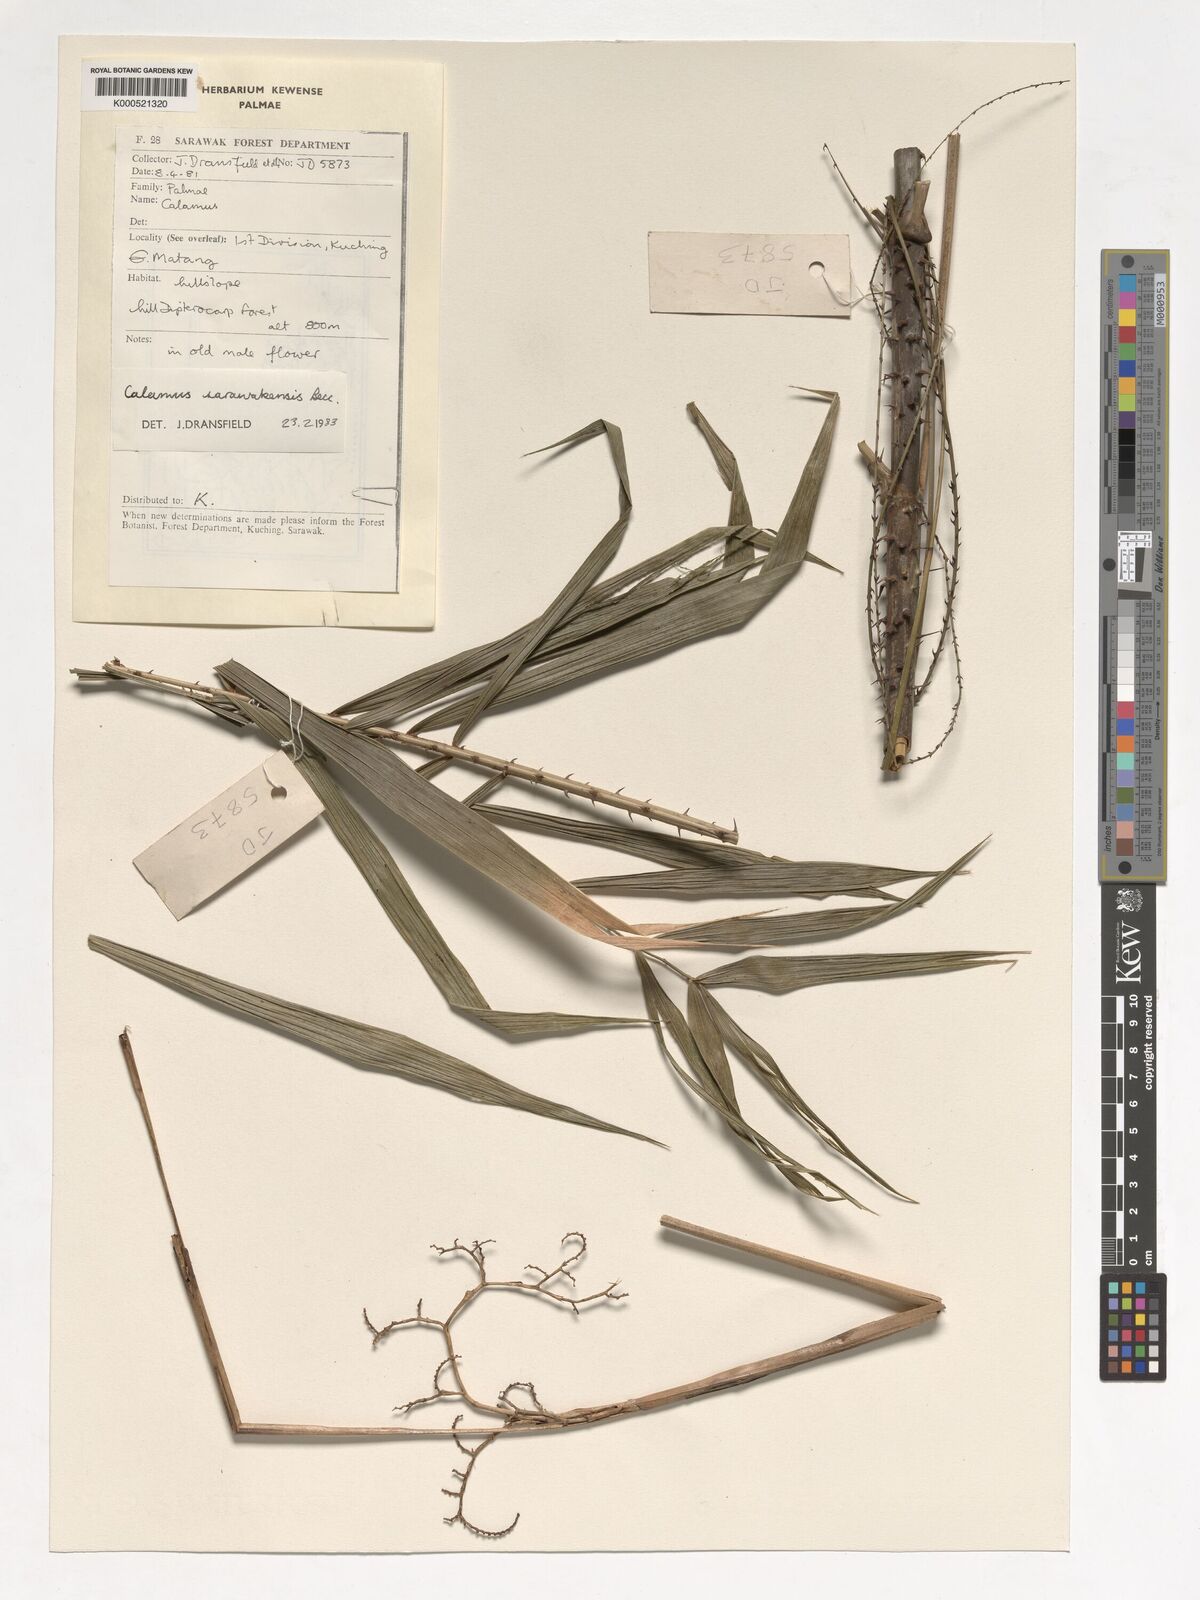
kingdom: Plantae
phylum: Tracheophyta
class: Liliopsida
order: Arecales
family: Arecaceae
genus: Calamus
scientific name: Calamus sarawakensis
